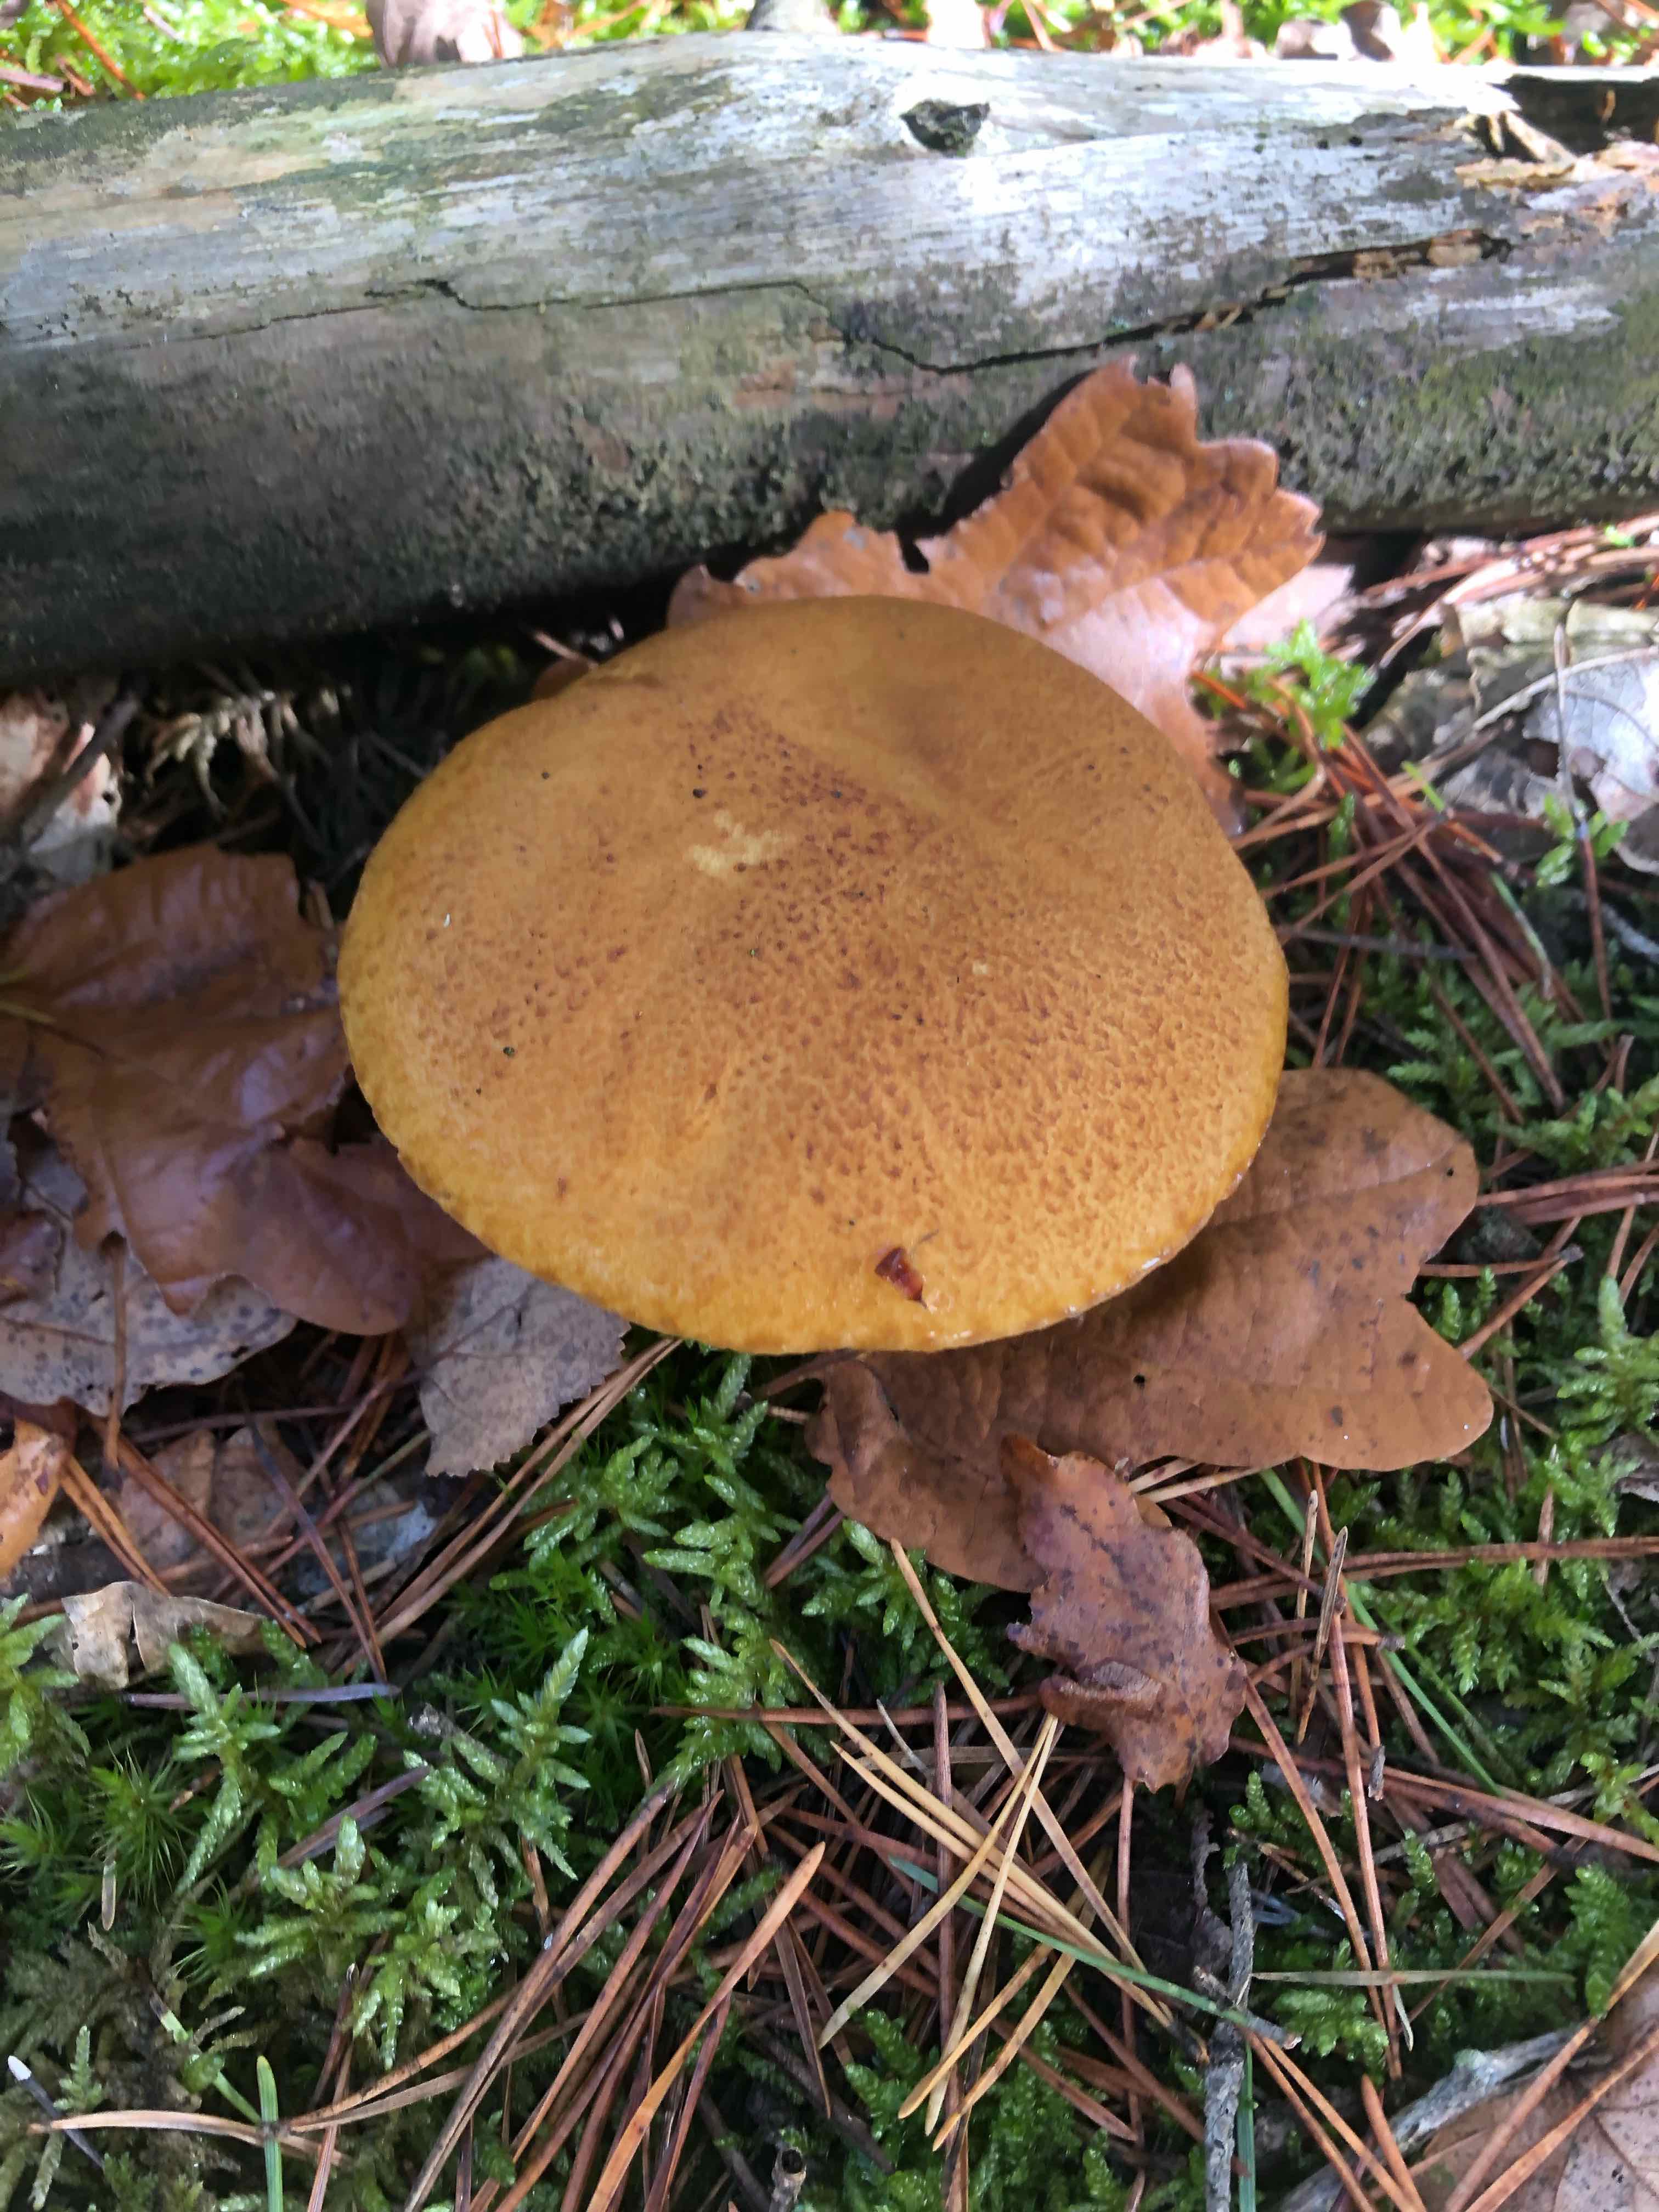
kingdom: Fungi
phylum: Basidiomycota
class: Agaricomycetes
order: Boletales
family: Suillaceae
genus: Suillus
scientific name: Suillus variegatus
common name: broget slimrørhat
